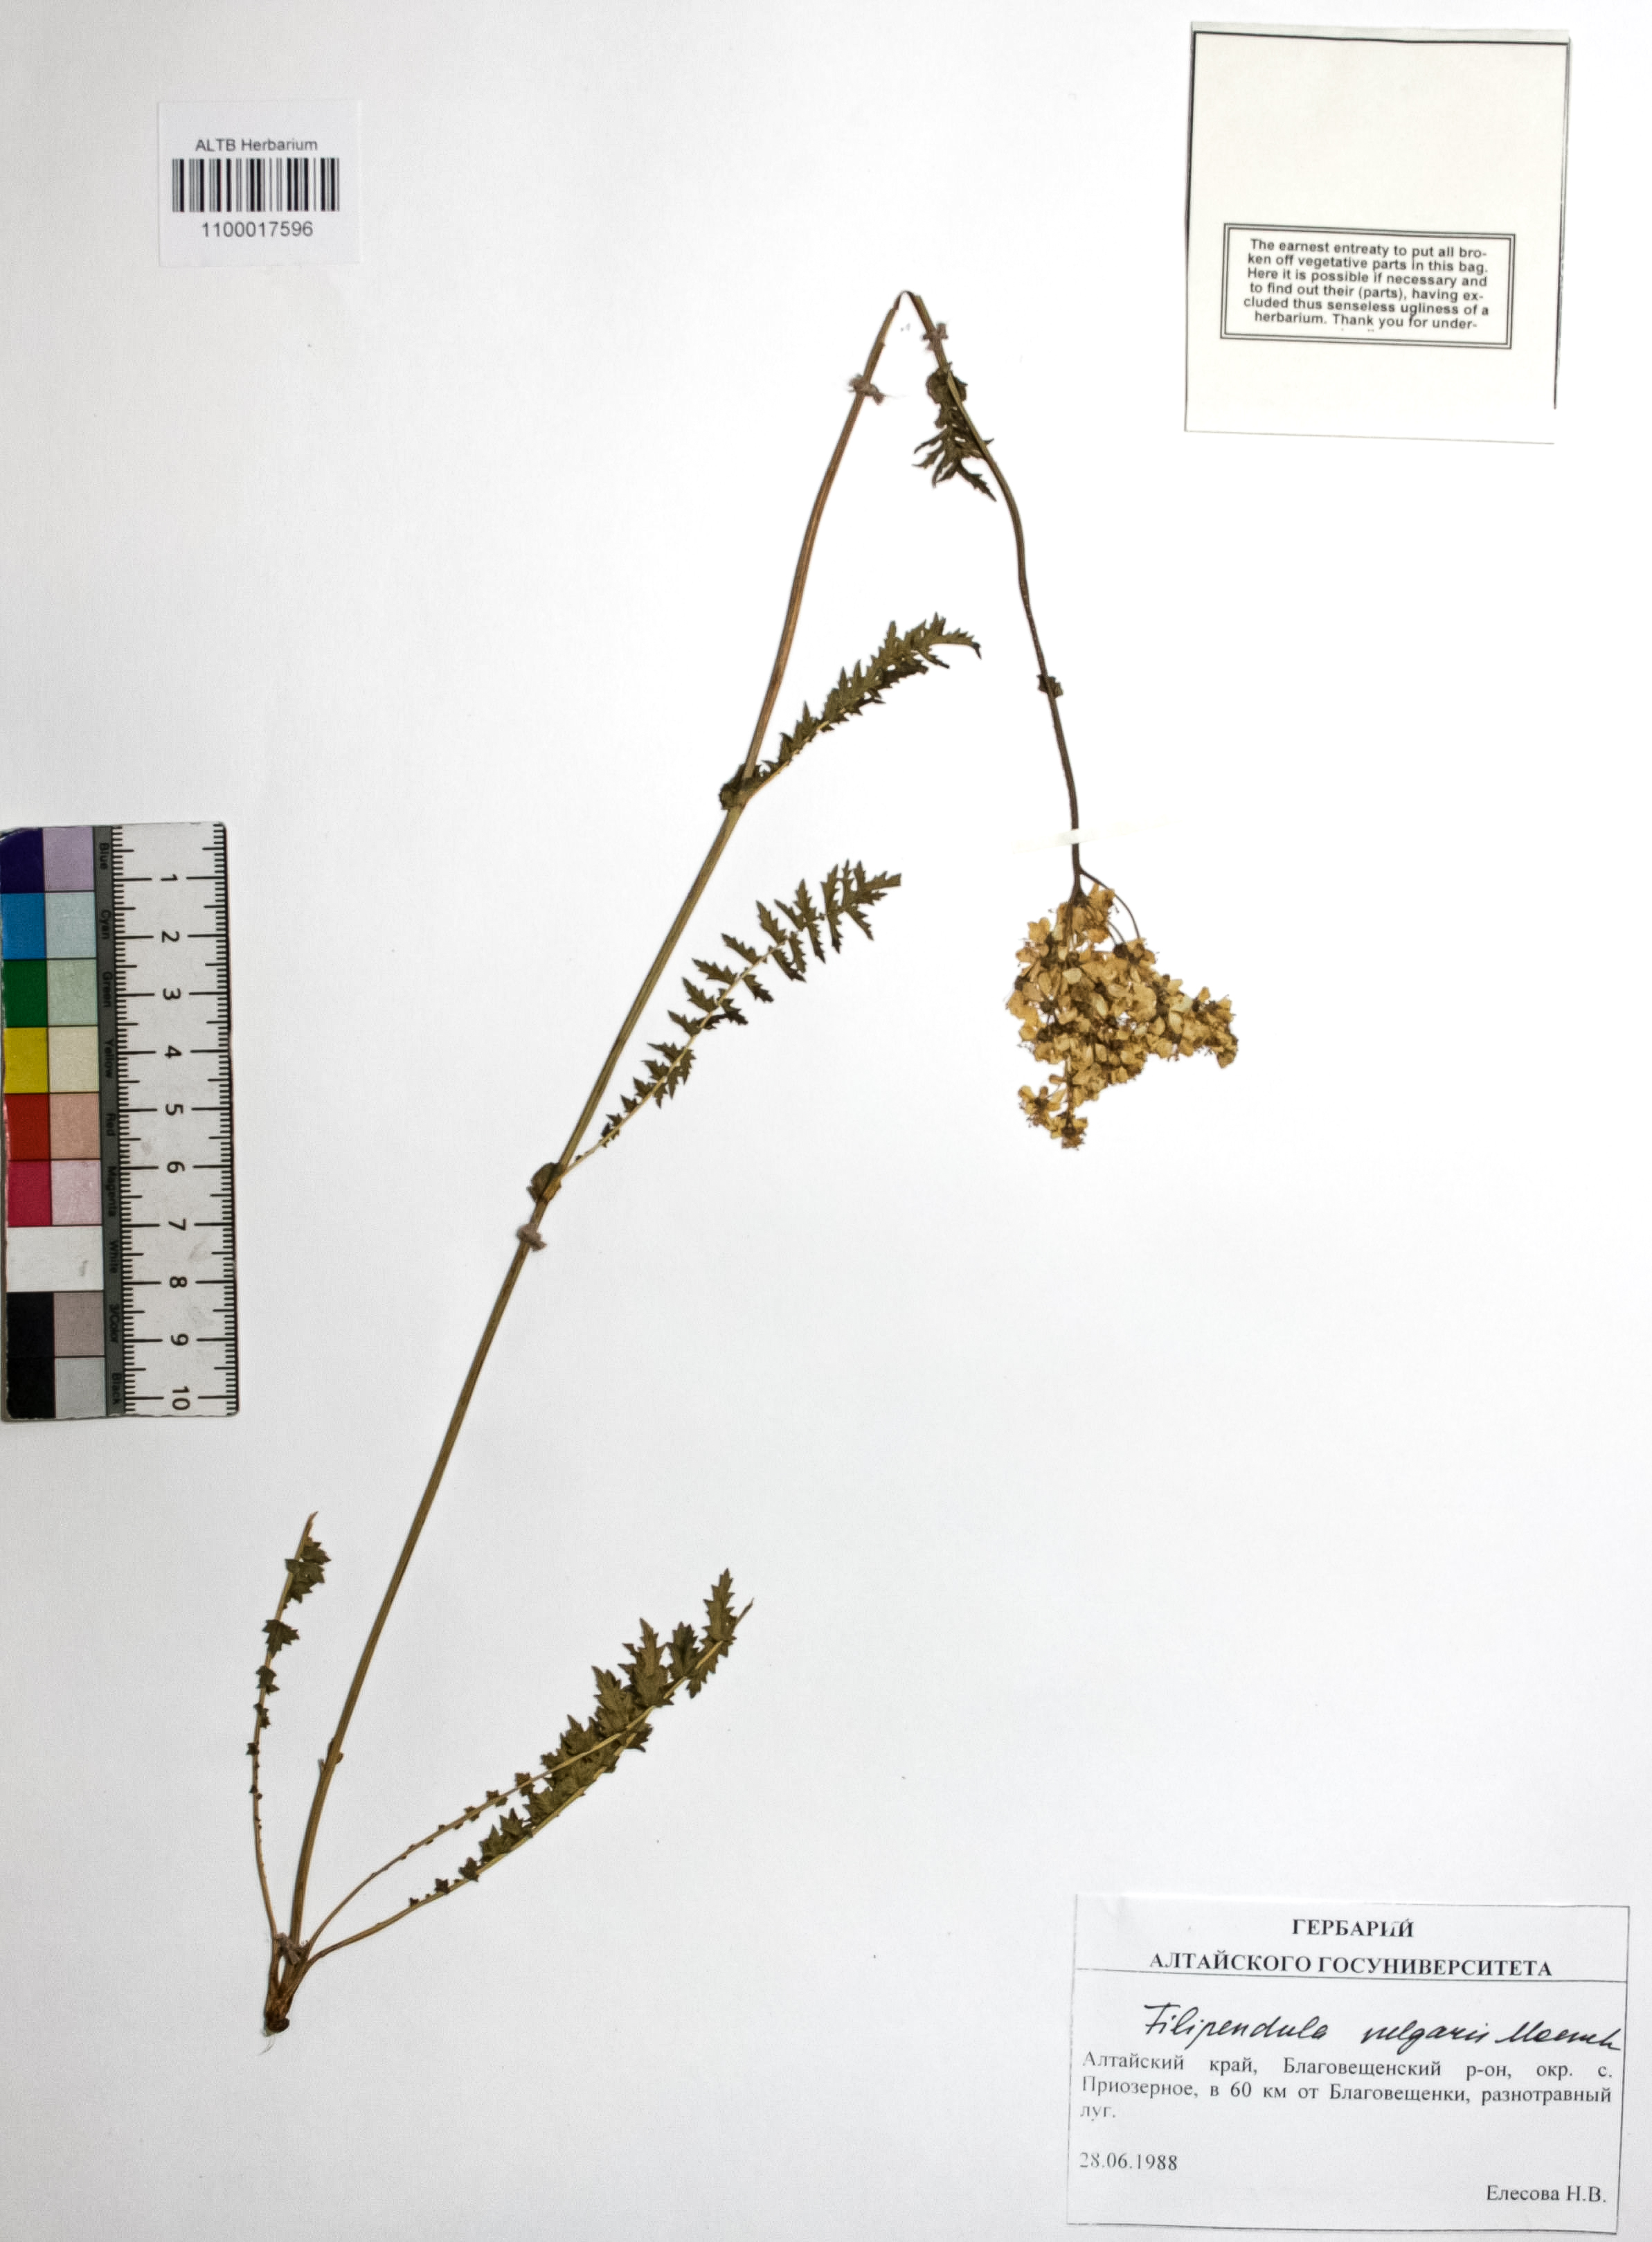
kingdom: Plantae
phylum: Tracheophyta
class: Magnoliopsida
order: Rosales
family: Rosaceae
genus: Filipendula
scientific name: Filipendula vulgaris
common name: Dropwort
